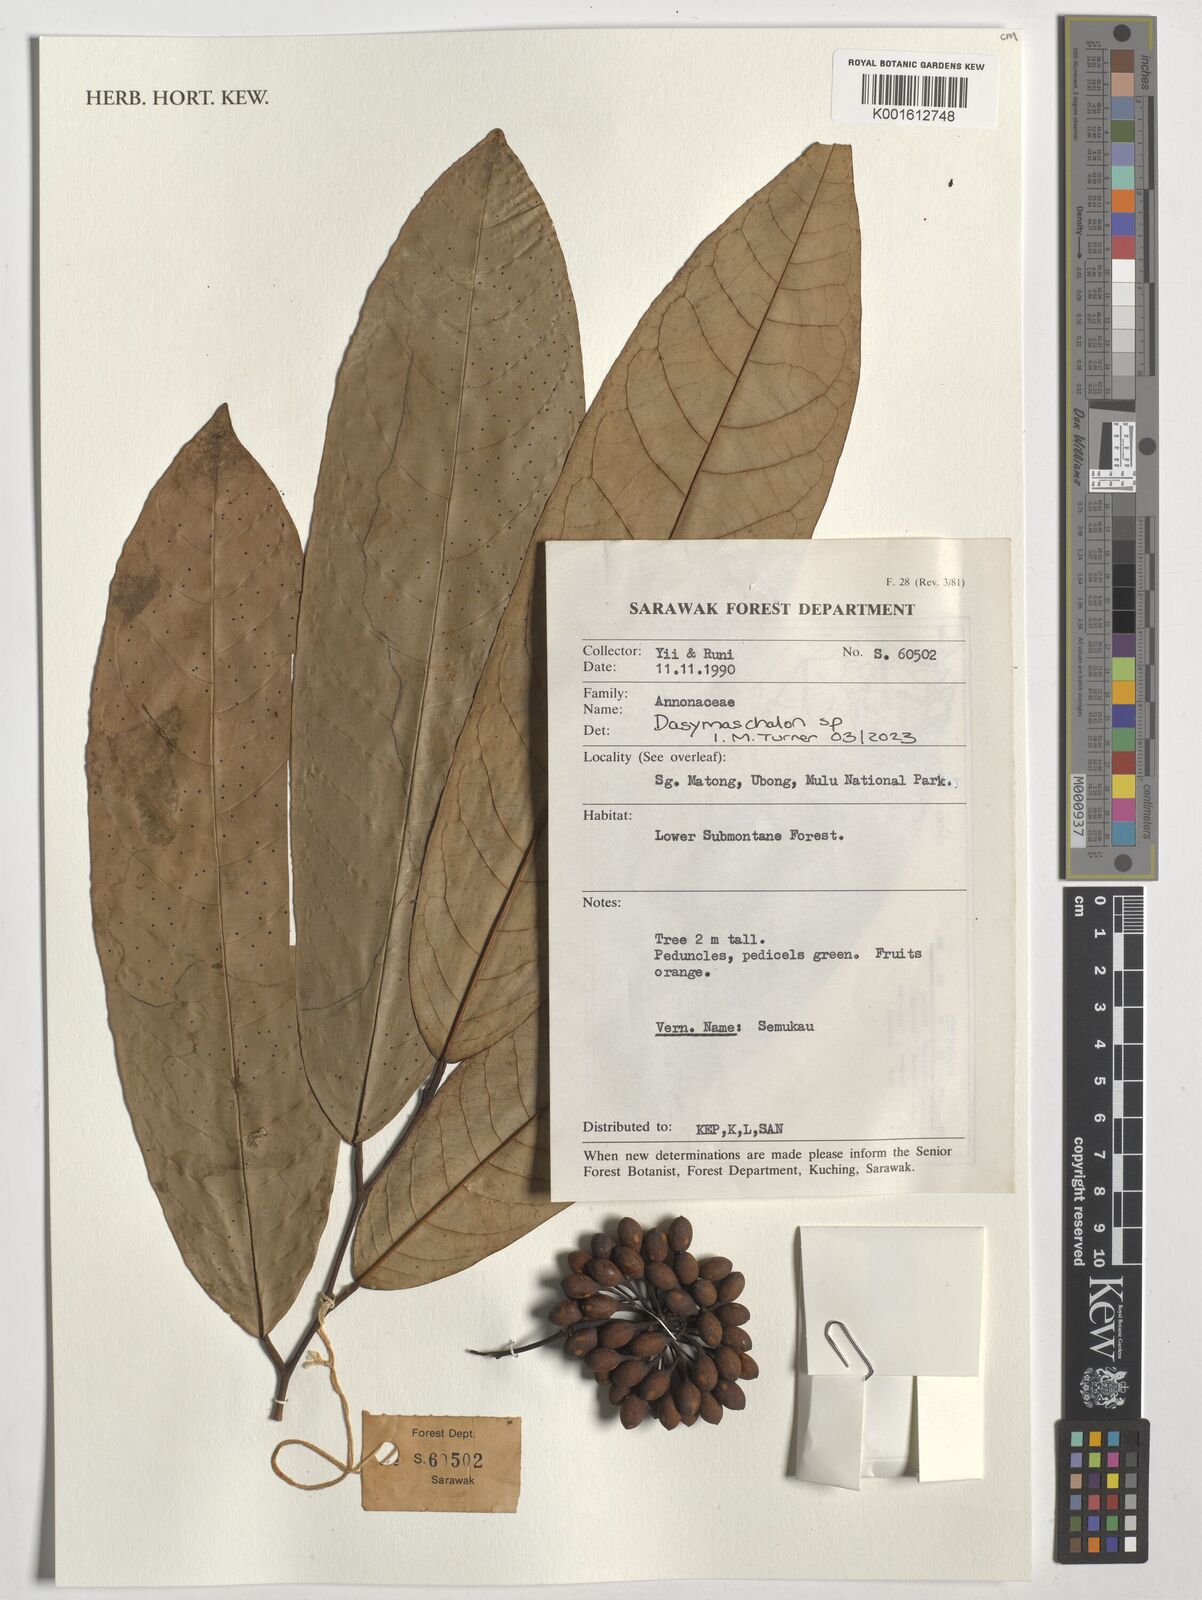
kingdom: Plantae
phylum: Tracheophyta
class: Magnoliopsida
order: Magnoliales
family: Annonaceae
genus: Dasymaschalon
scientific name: Dasymaschalon
